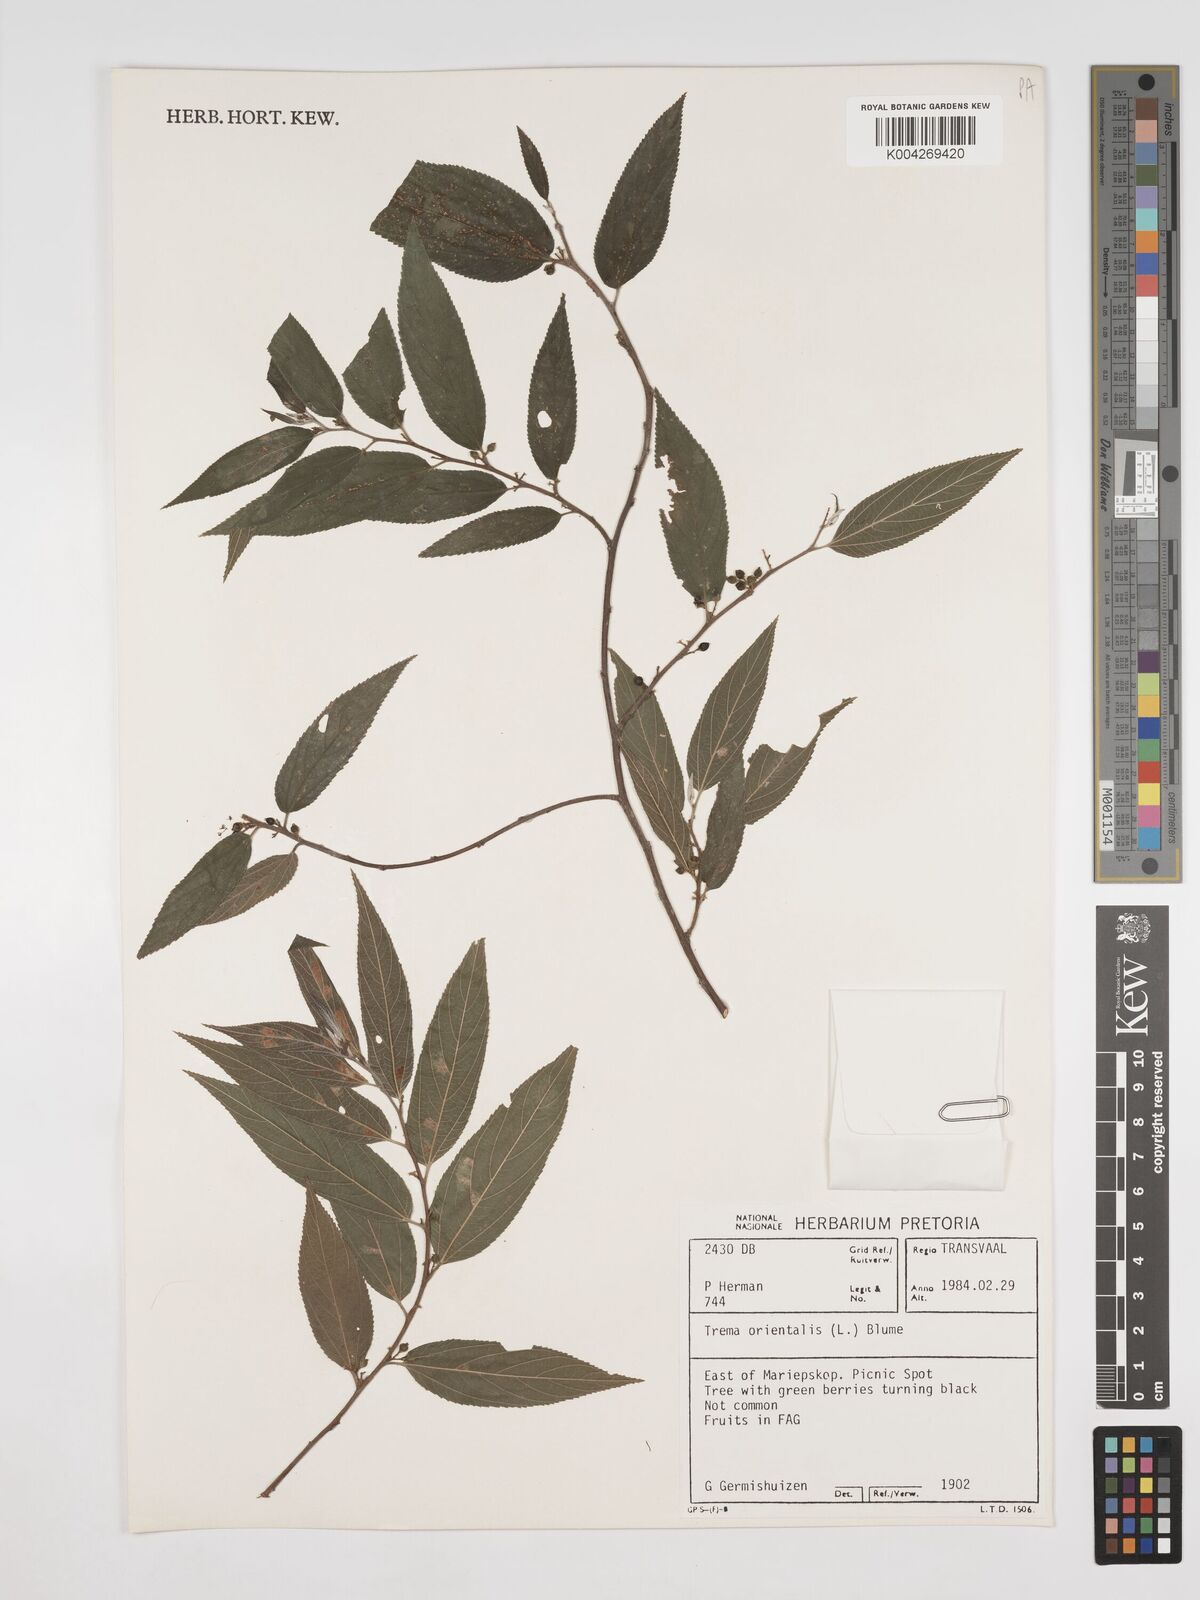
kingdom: Plantae
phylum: Tracheophyta
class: Magnoliopsida
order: Rosales
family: Cannabaceae
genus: Trema
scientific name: Trema orientale
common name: Indian charcoal tree
